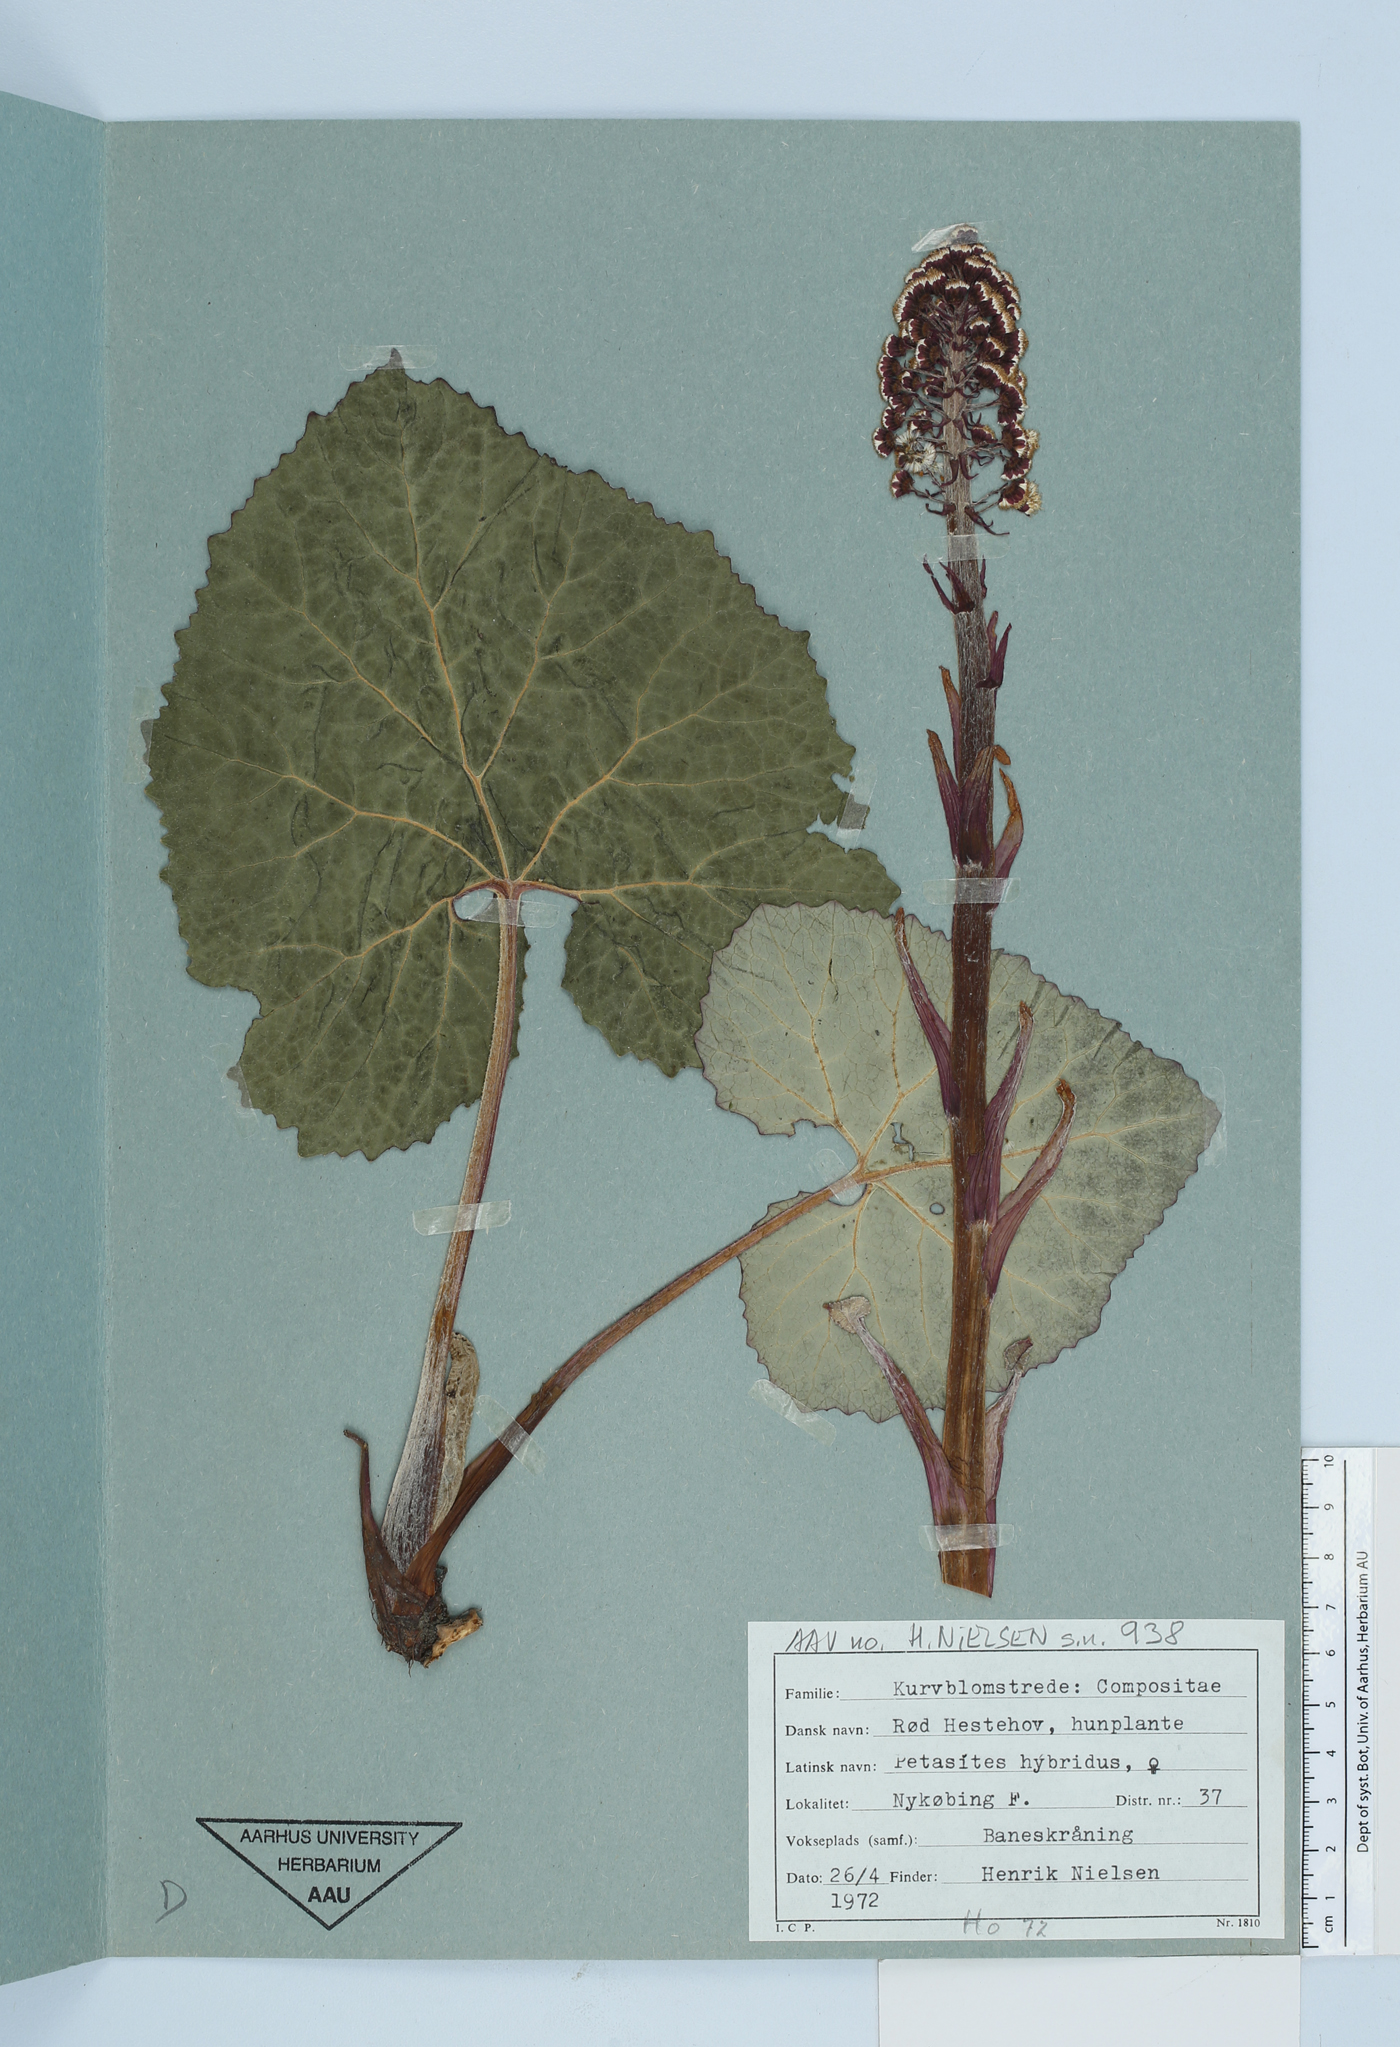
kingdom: Plantae
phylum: Tracheophyta
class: Magnoliopsida
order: Asterales
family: Asteraceae
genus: Petasites
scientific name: Petasites hybridus
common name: Butterbur
